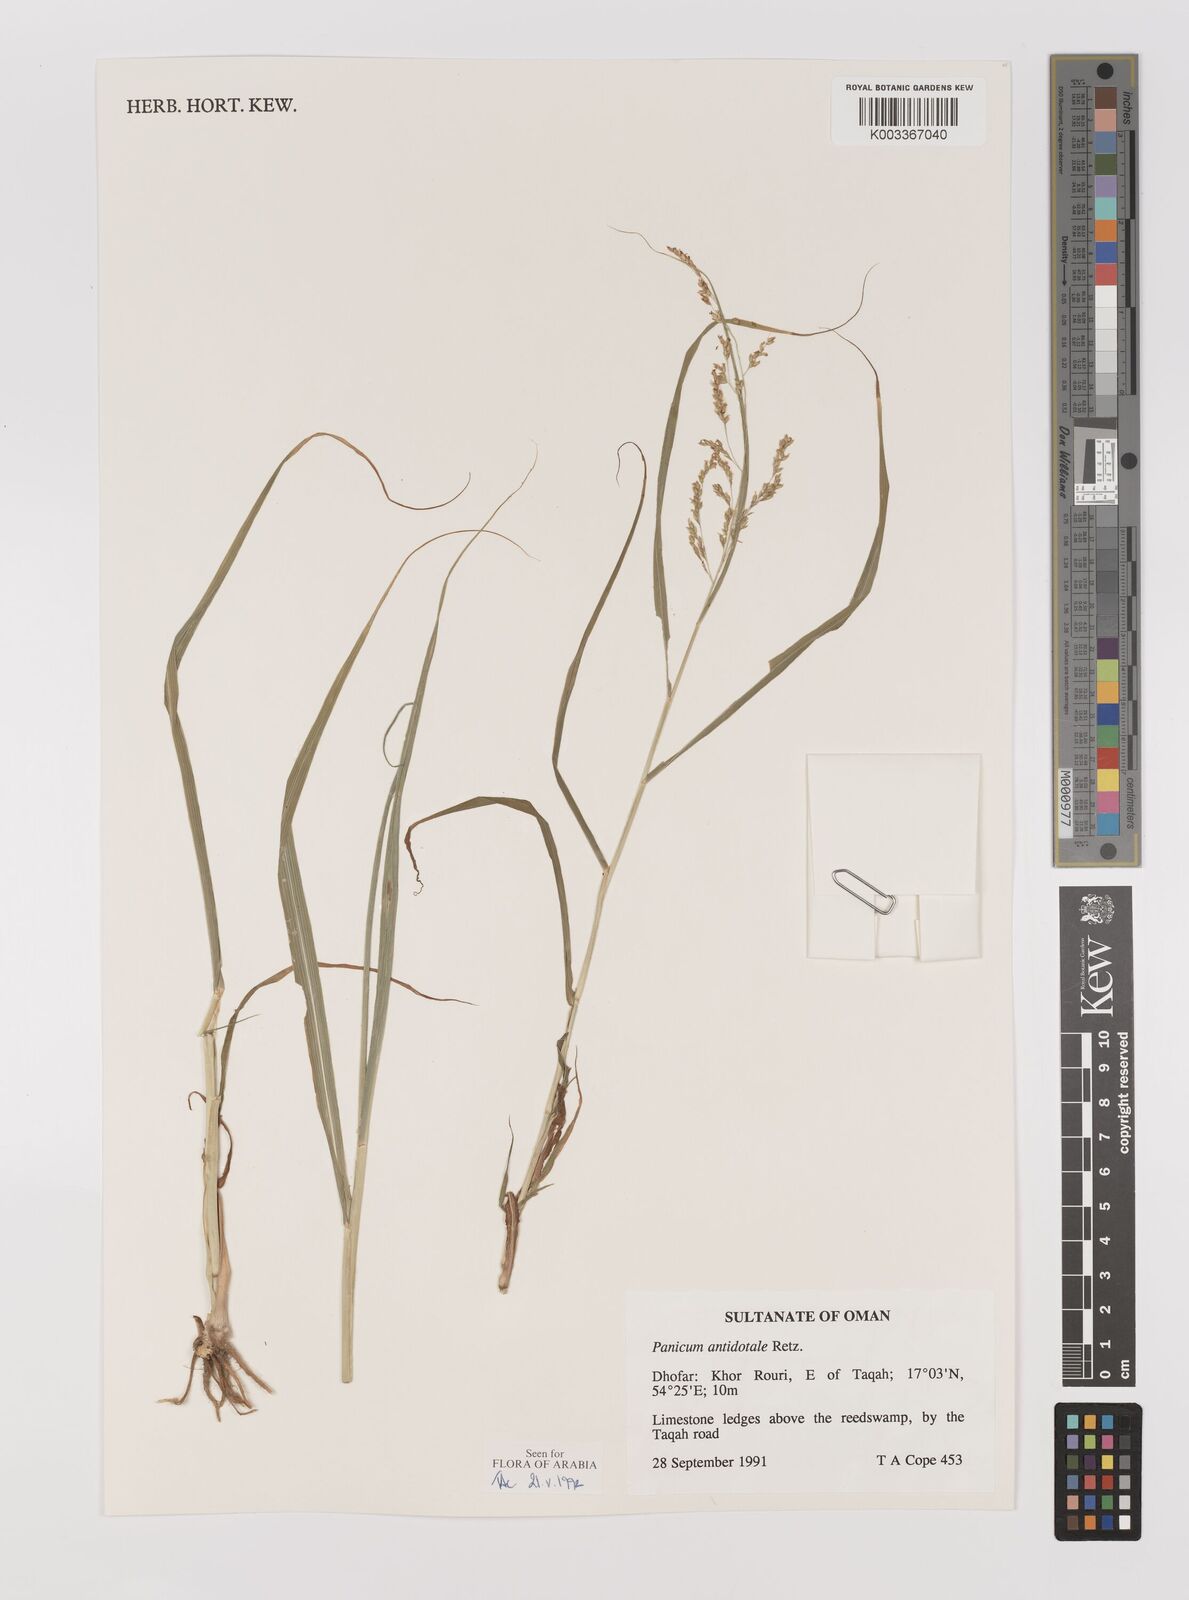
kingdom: Plantae
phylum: Tracheophyta
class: Liliopsida
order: Poales
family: Poaceae
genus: Panicum
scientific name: Panicum antidotale
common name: Blue panicum
